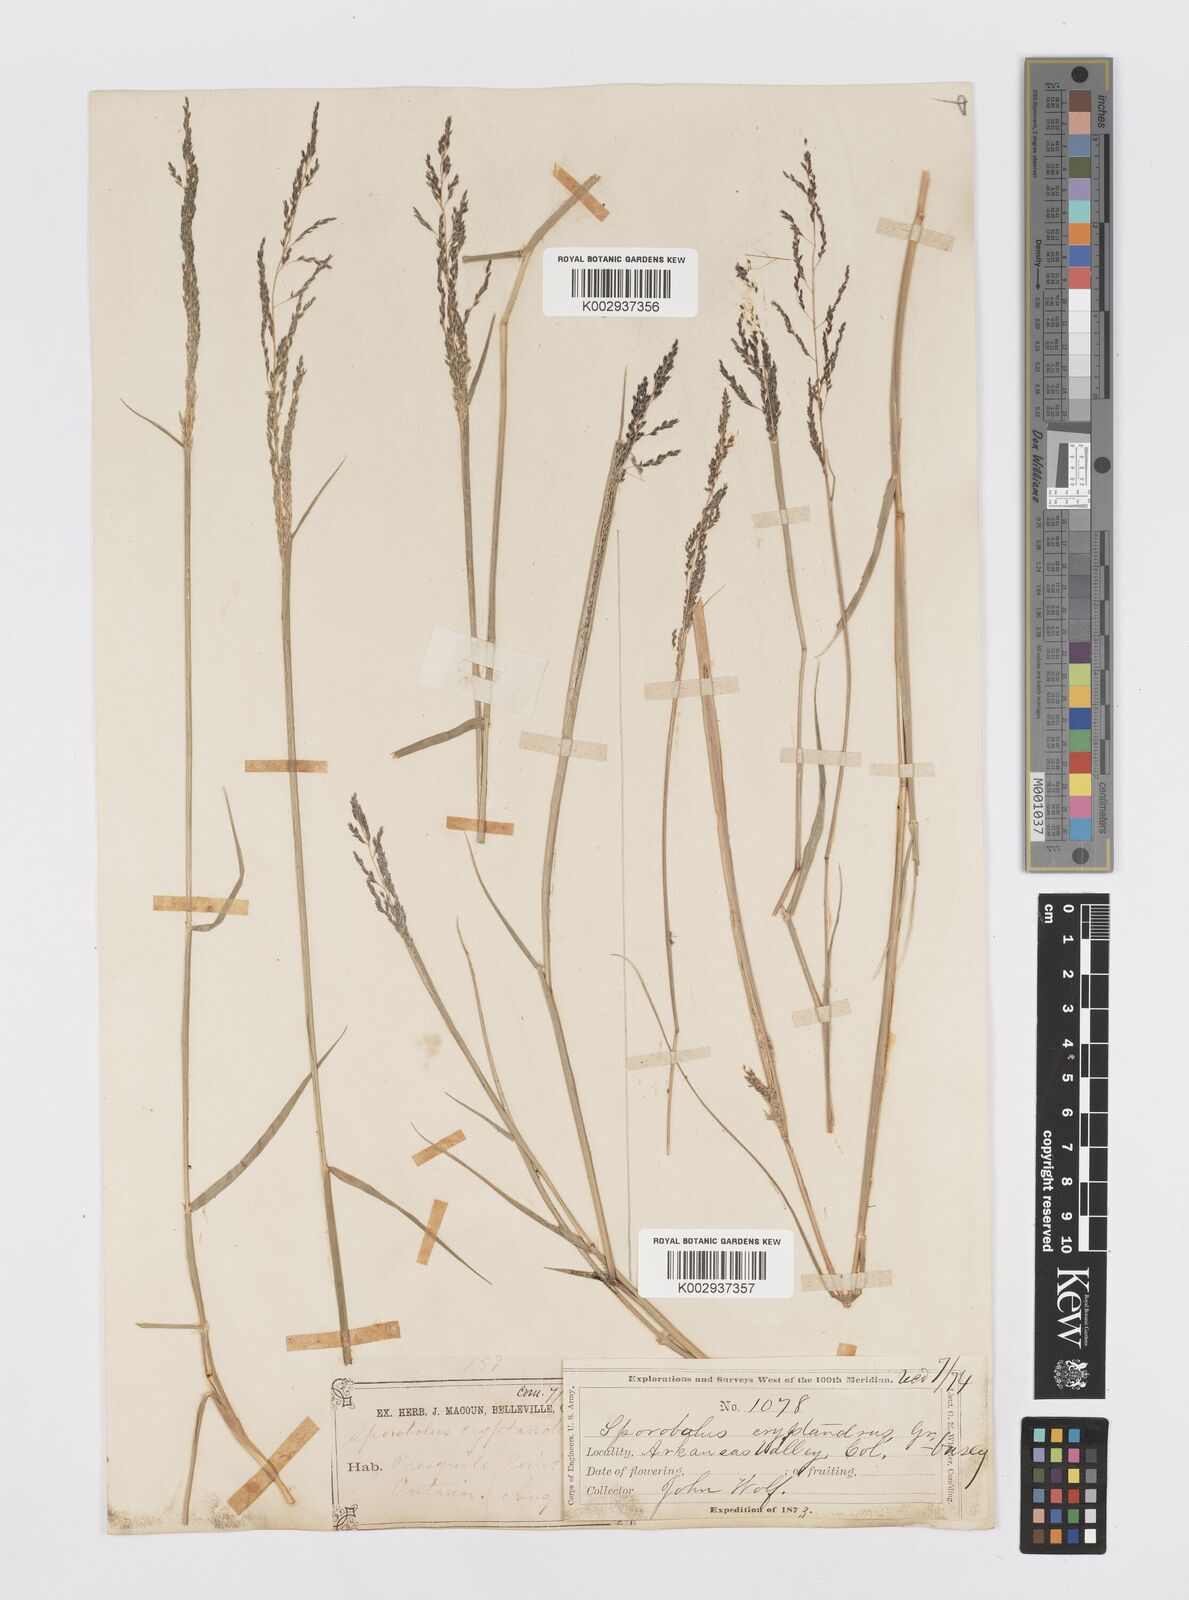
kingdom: Plantae
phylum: Tracheophyta
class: Liliopsida
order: Poales
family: Poaceae
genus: Sporobolus
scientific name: Sporobolus cryptandrus
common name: Sand dropseed
